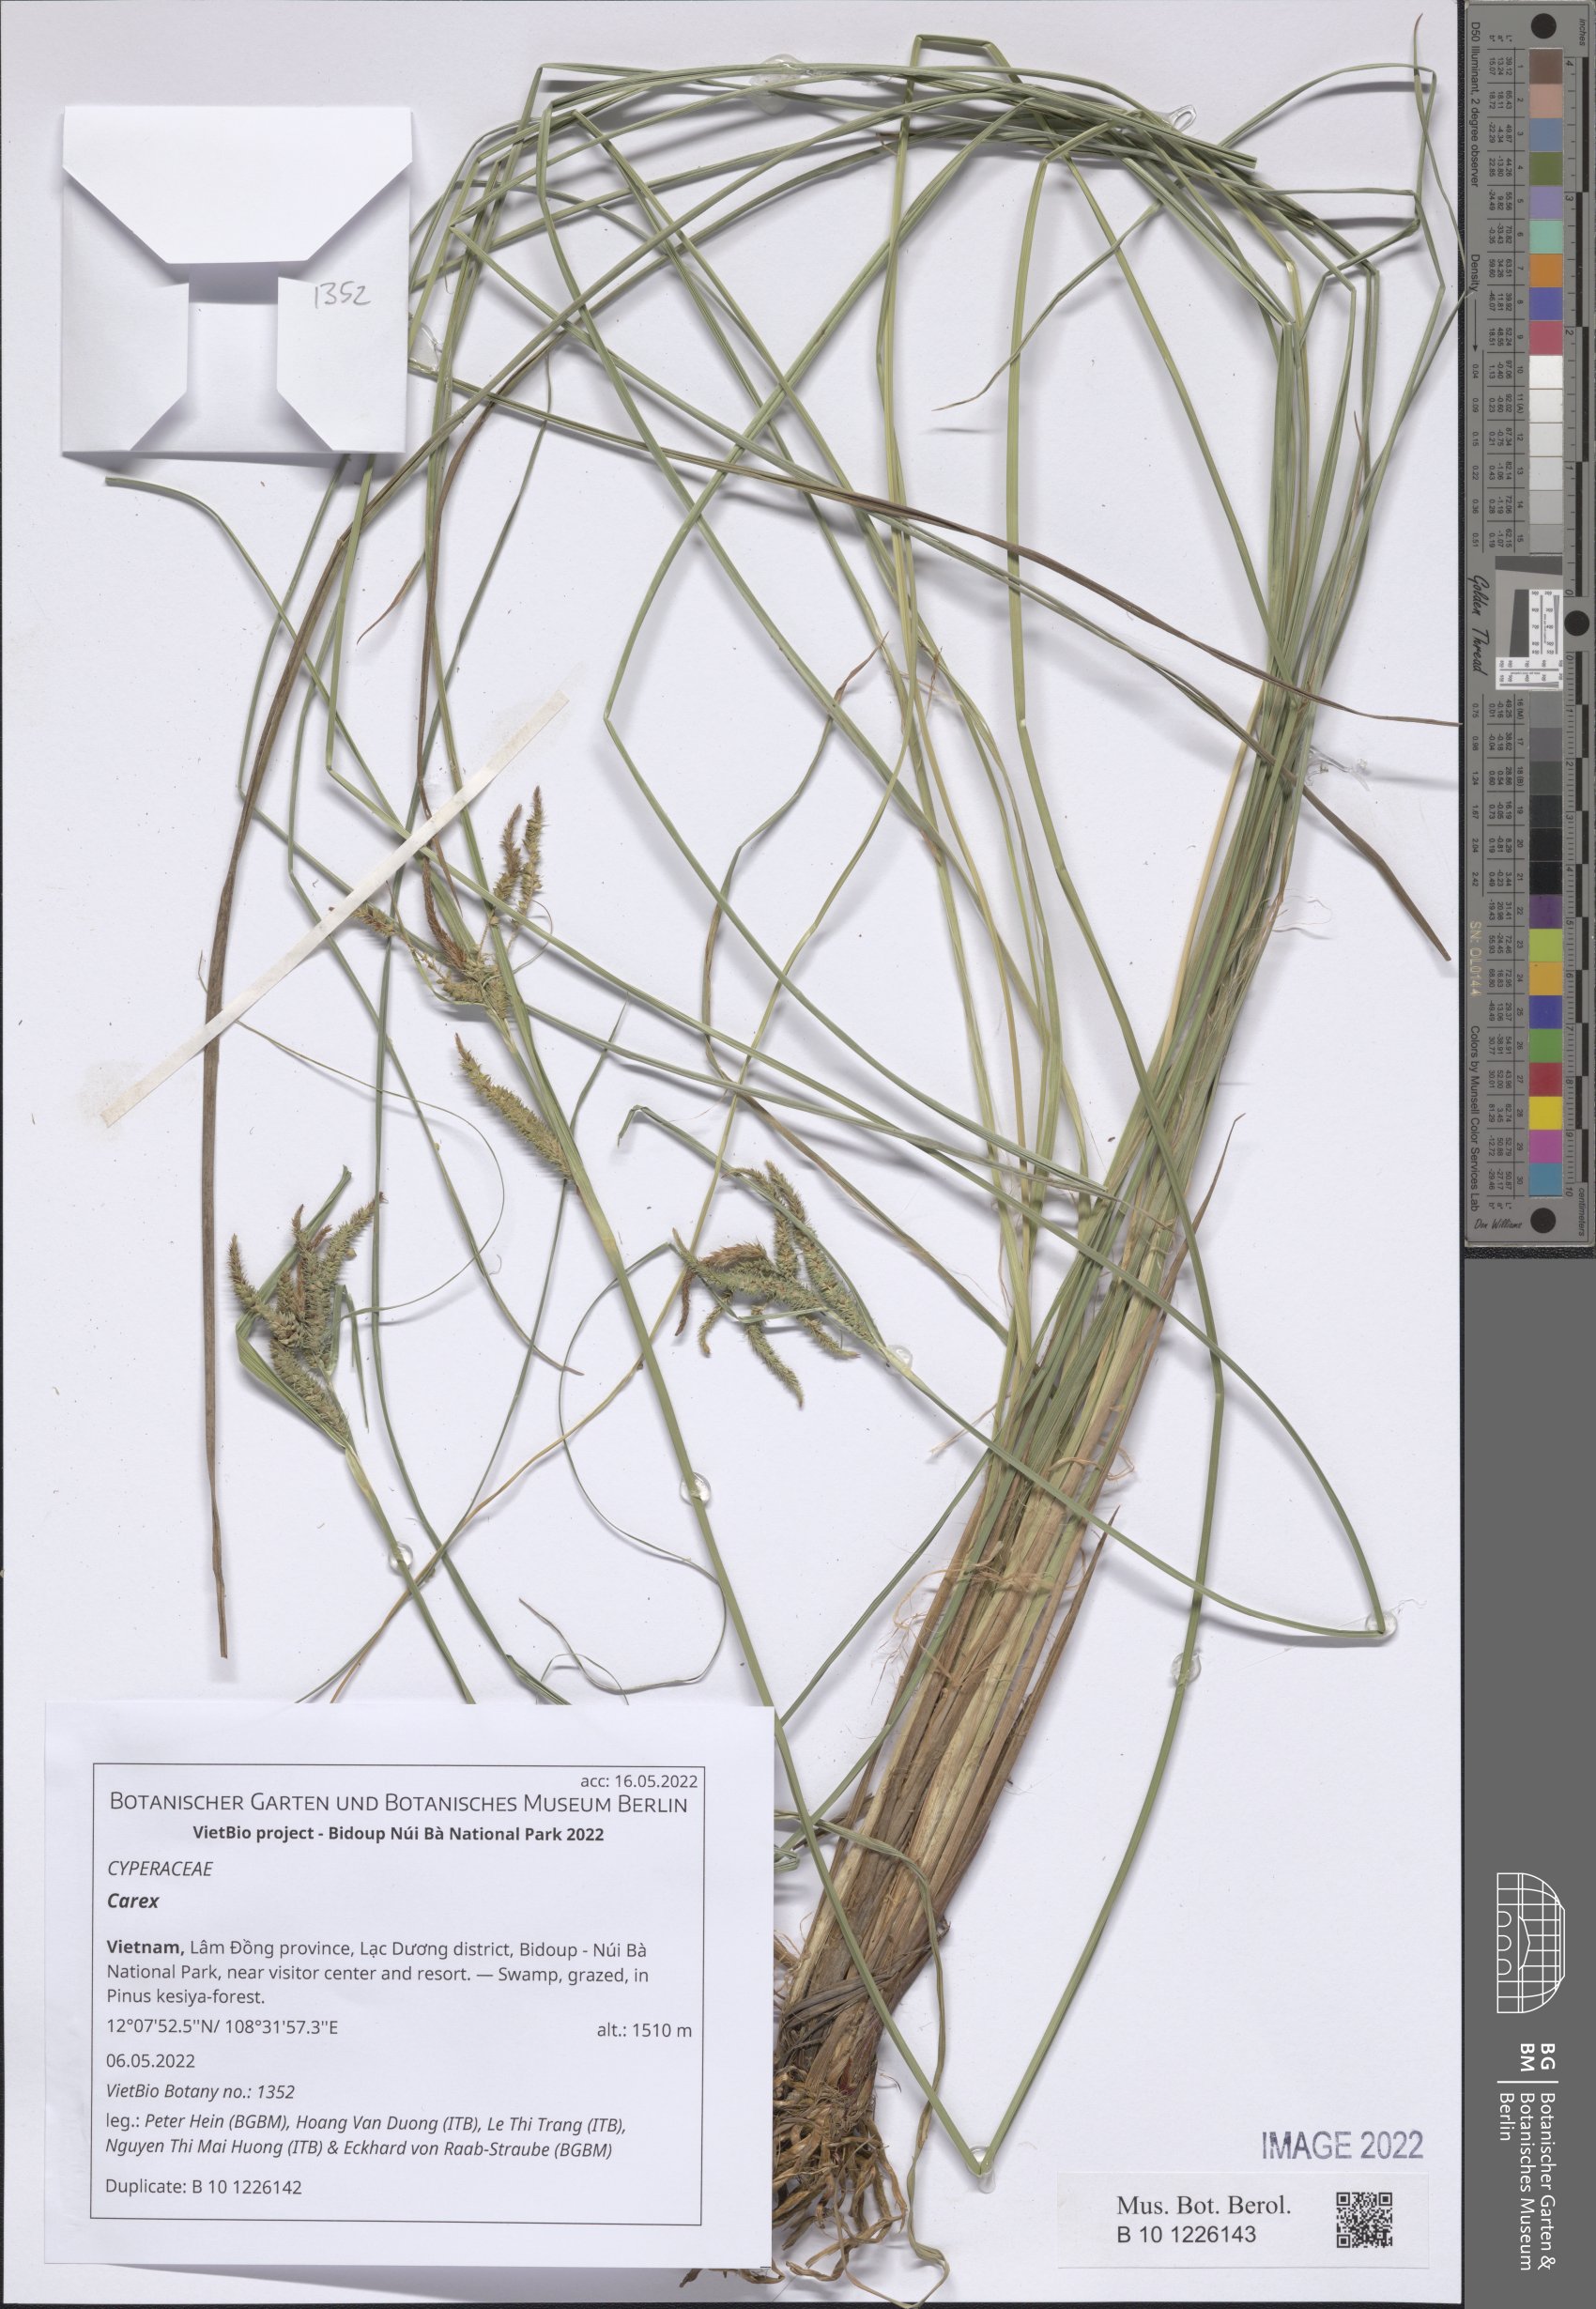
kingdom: Plantae
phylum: Tracheophyta
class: Liliopsida
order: Poales
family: Cyperaceae
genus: Carex
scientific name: Carex
